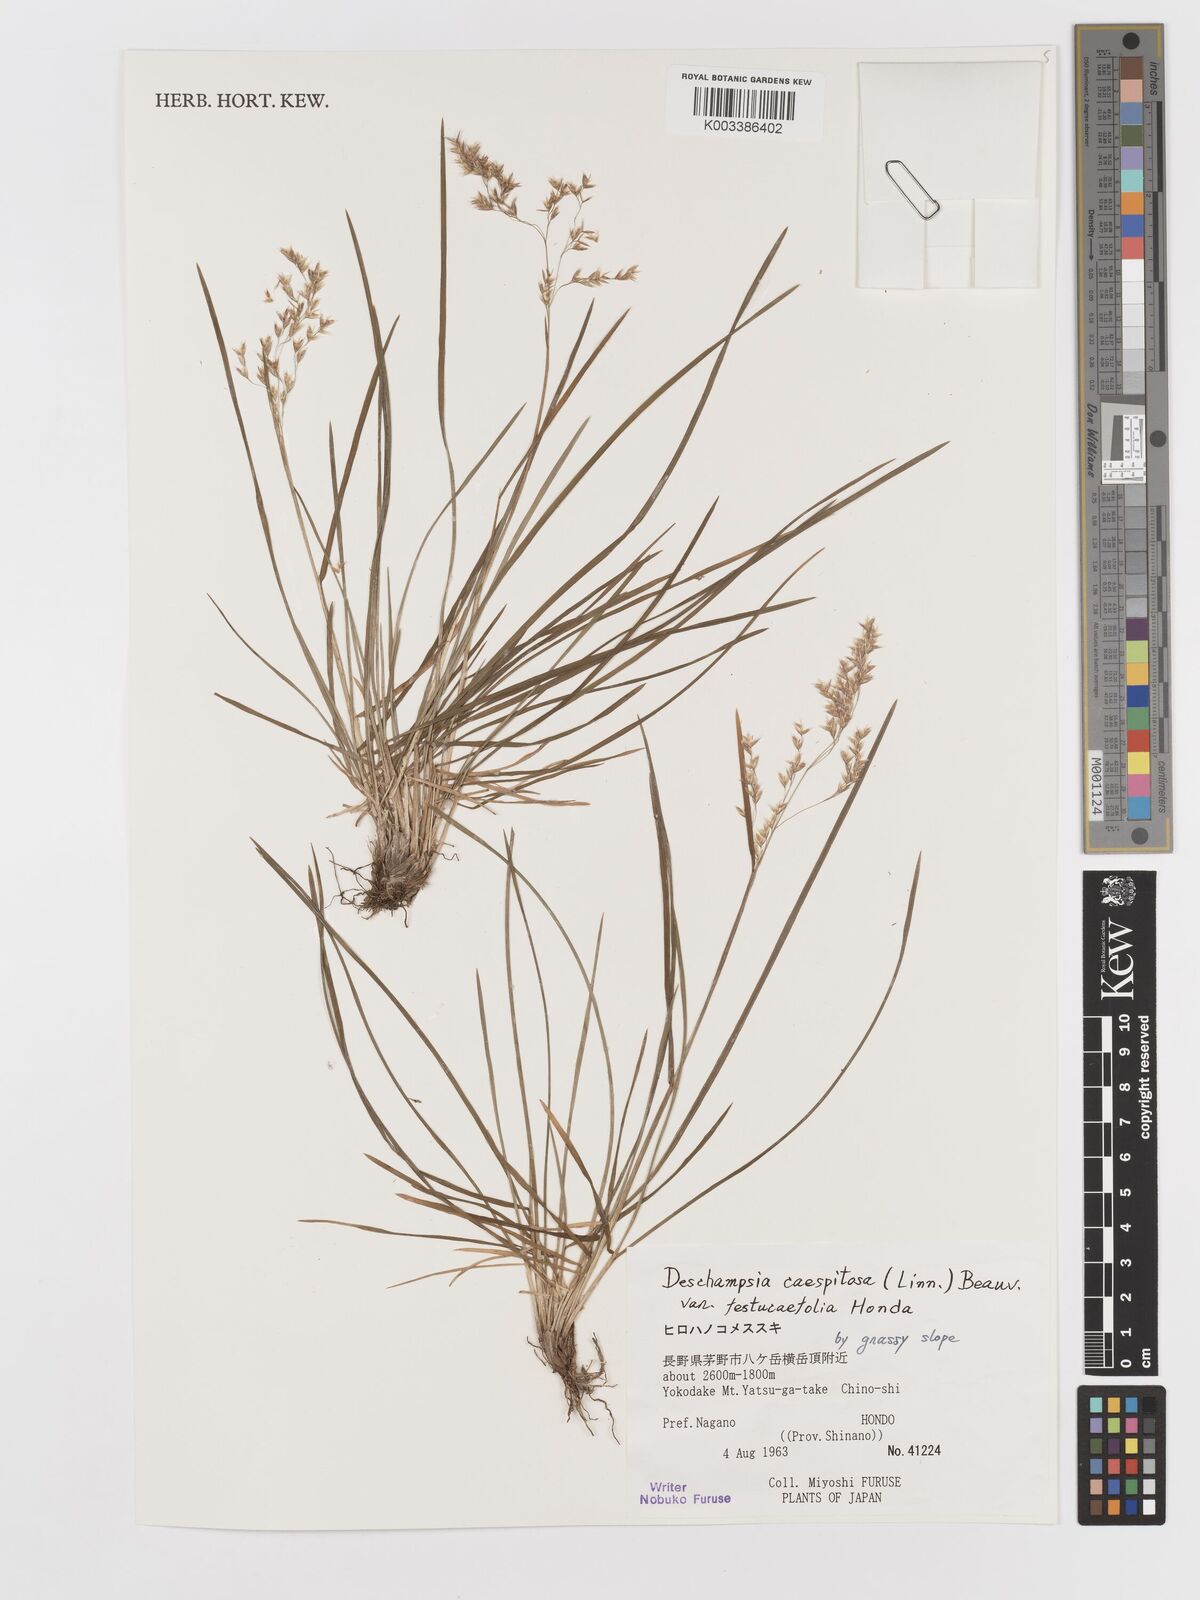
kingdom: Plantae
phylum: Tracheophyta
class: Liliopsida
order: Poales
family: Poaceae
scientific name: Poaceae
